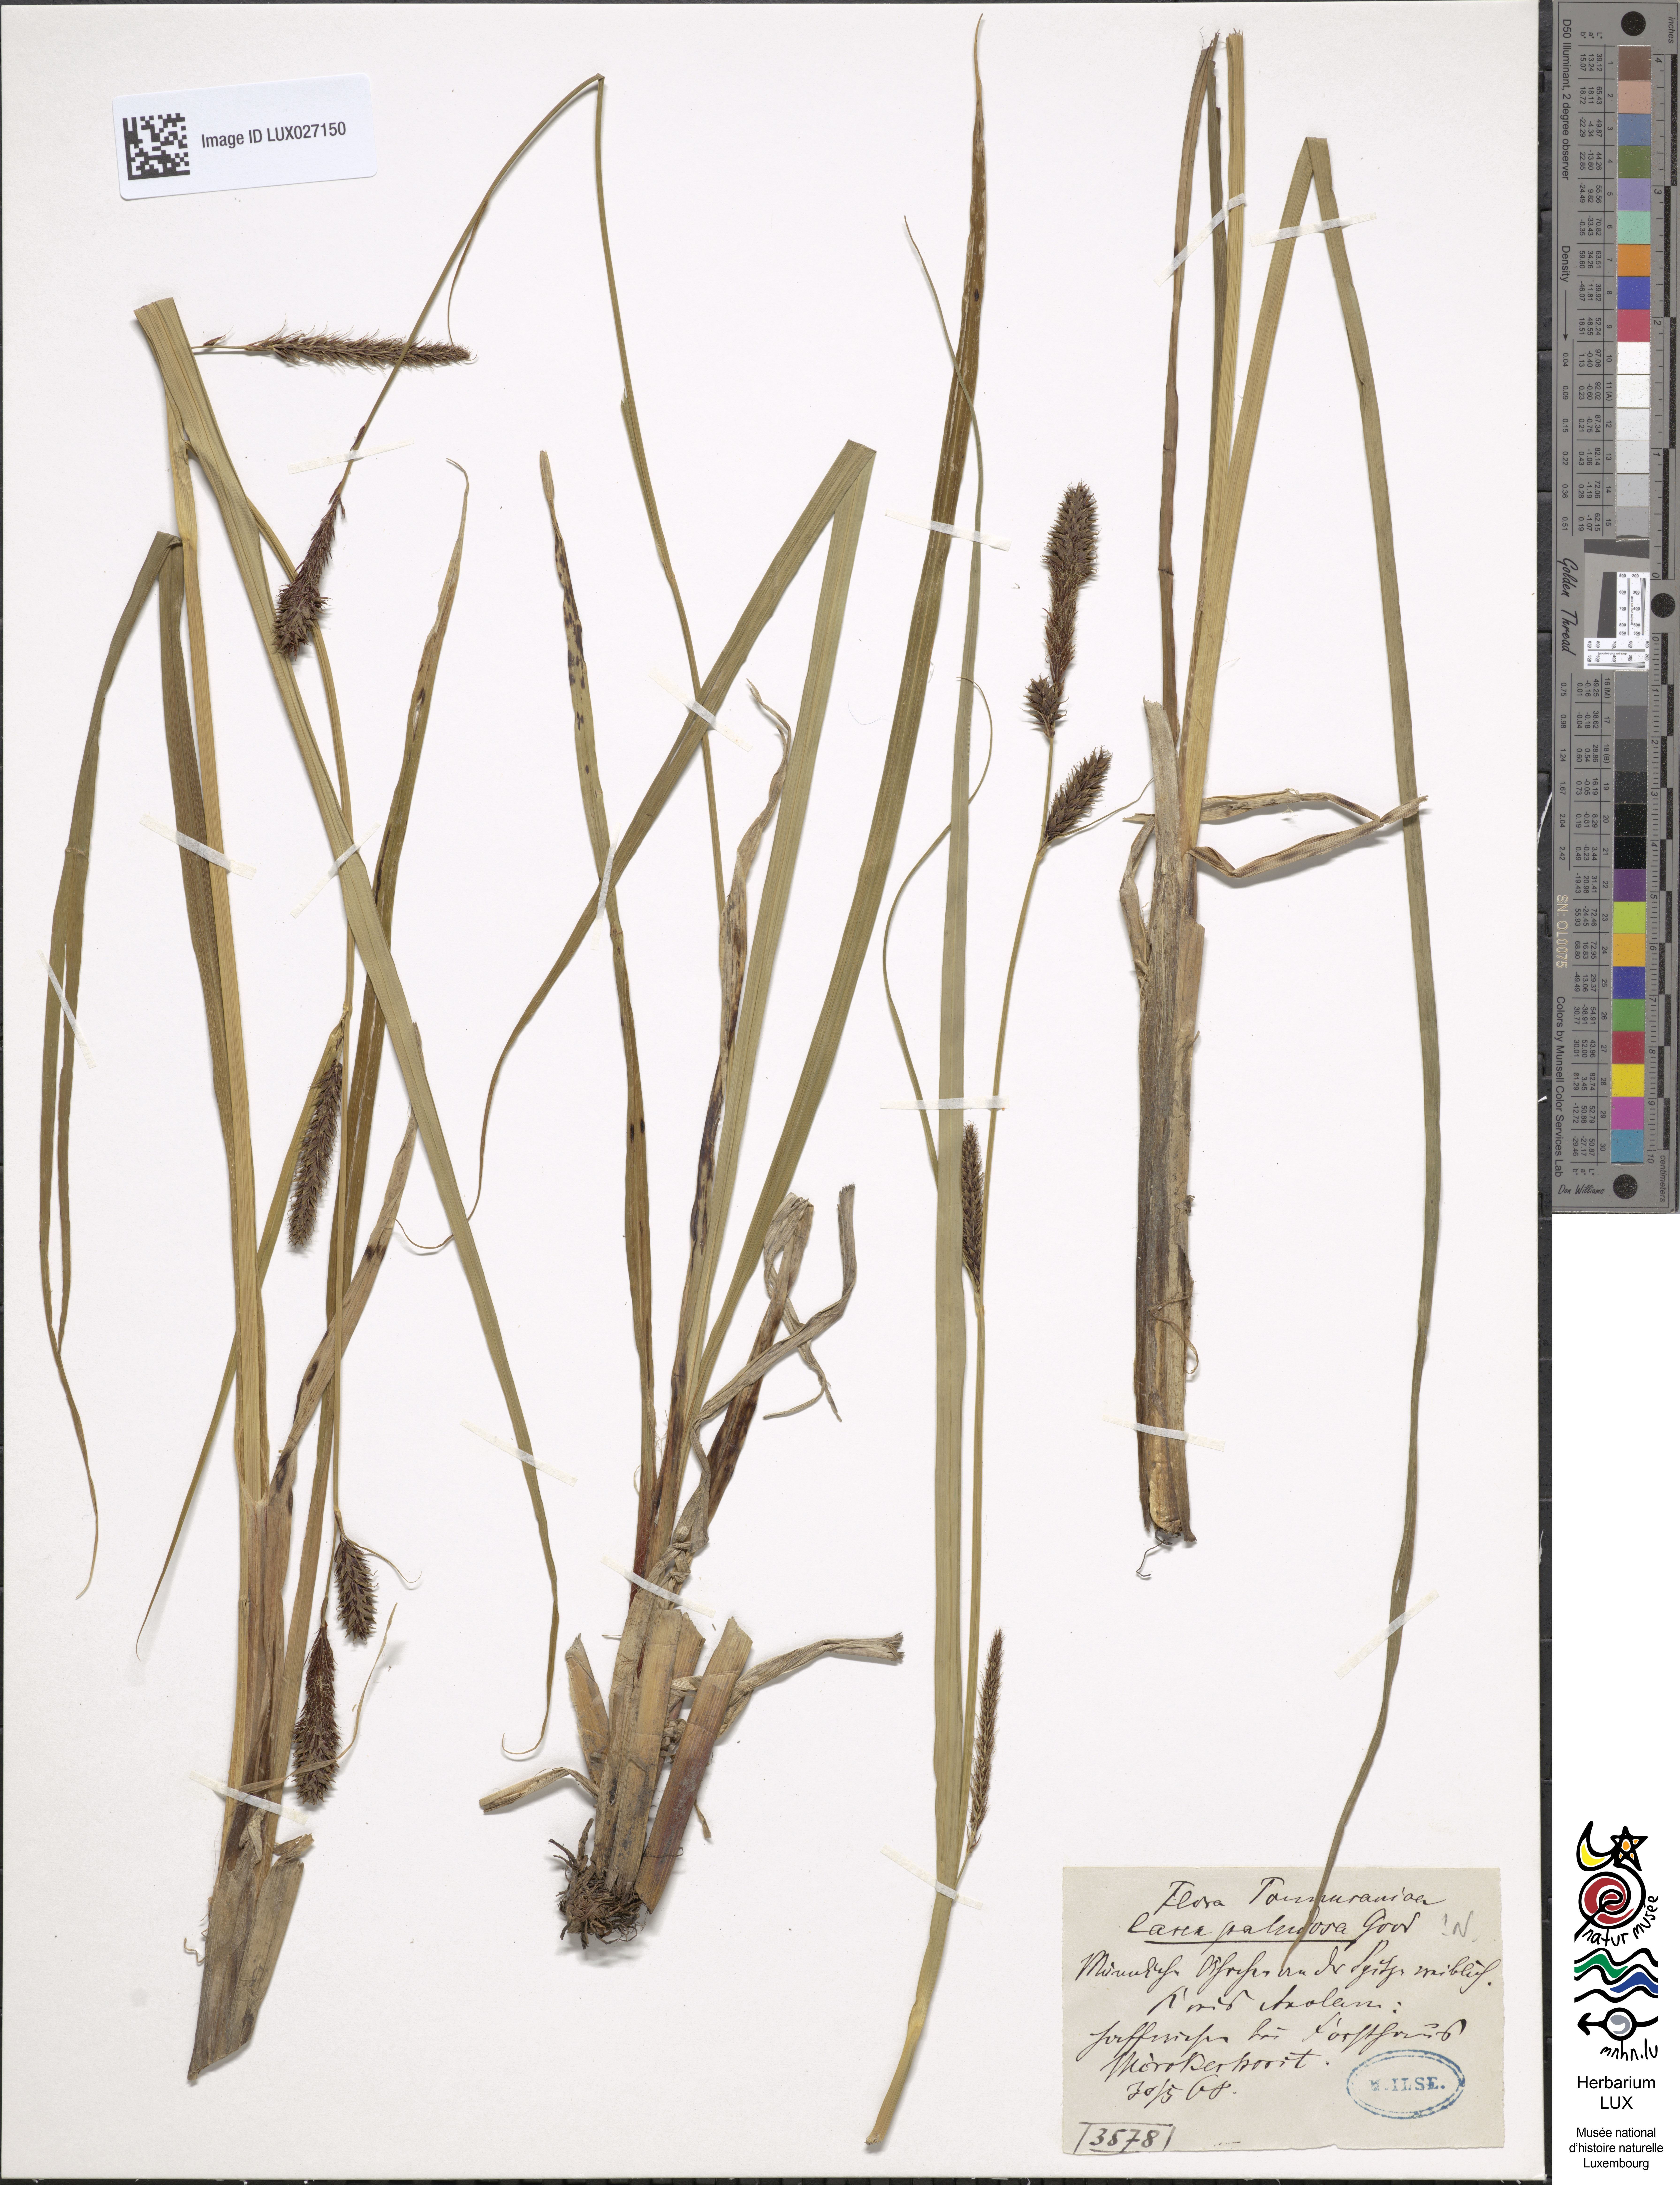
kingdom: Plantae
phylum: Tracheophyta
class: Liliopsida
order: Poales
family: Cyperaceae
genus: Carex
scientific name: Carex acutiformis
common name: Lesser pond-sedge
